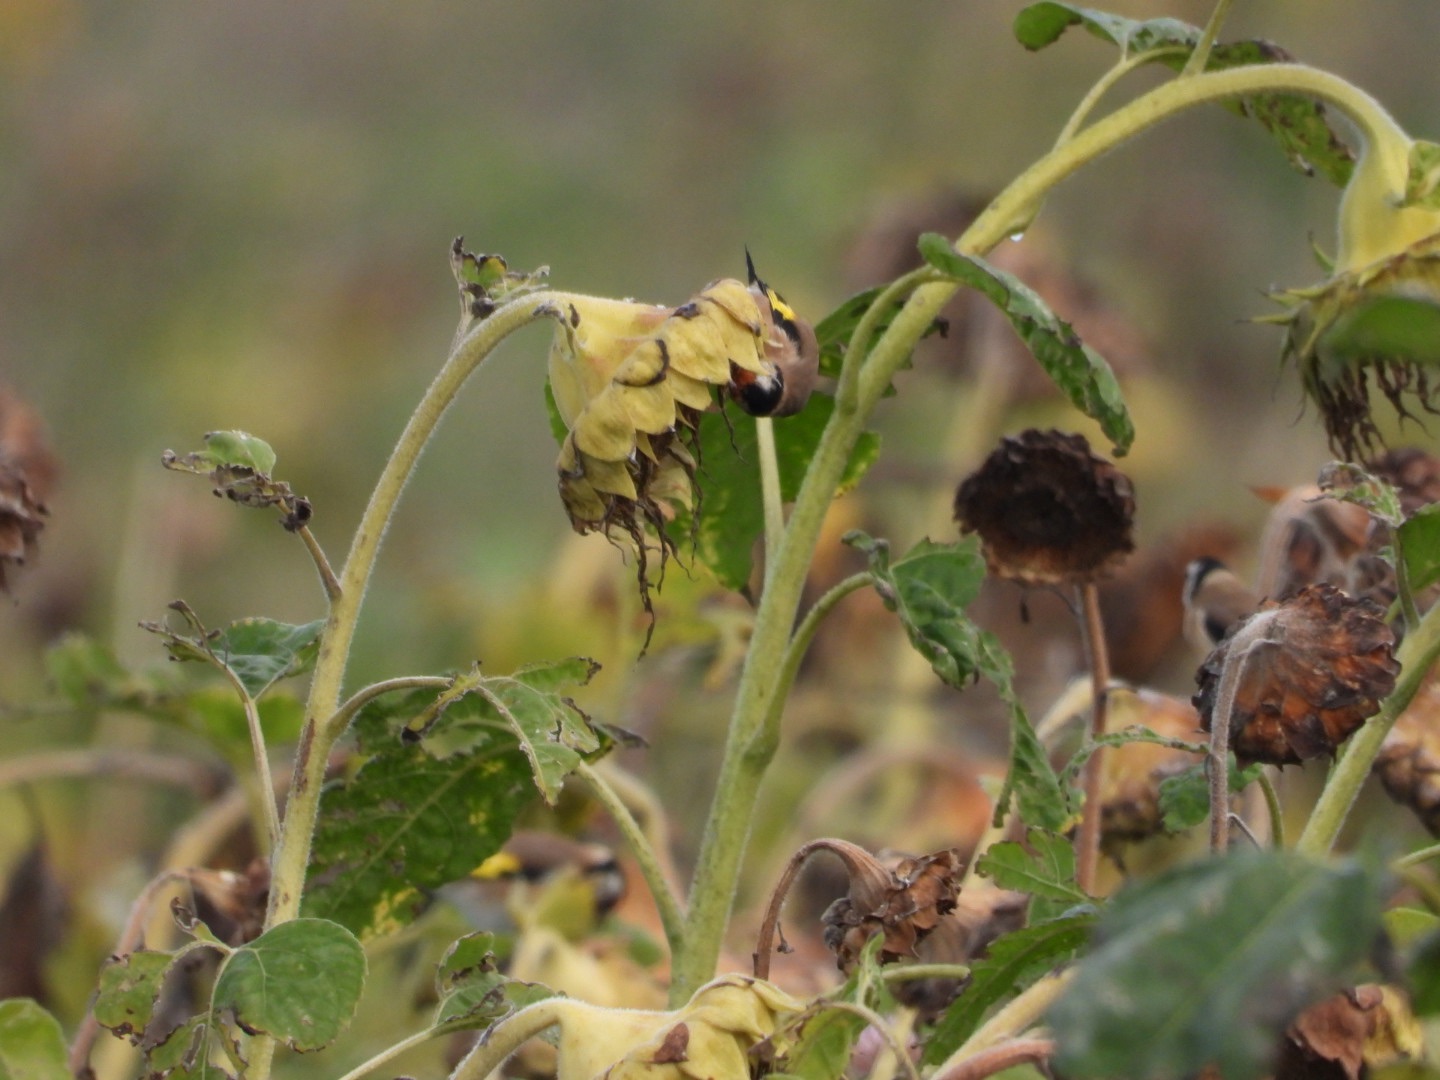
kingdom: Animalia
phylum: Chordata
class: Aves
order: Passeriformes
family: Fringillidae
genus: Carduelis
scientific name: Carduelis carduelis
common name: Stillits
